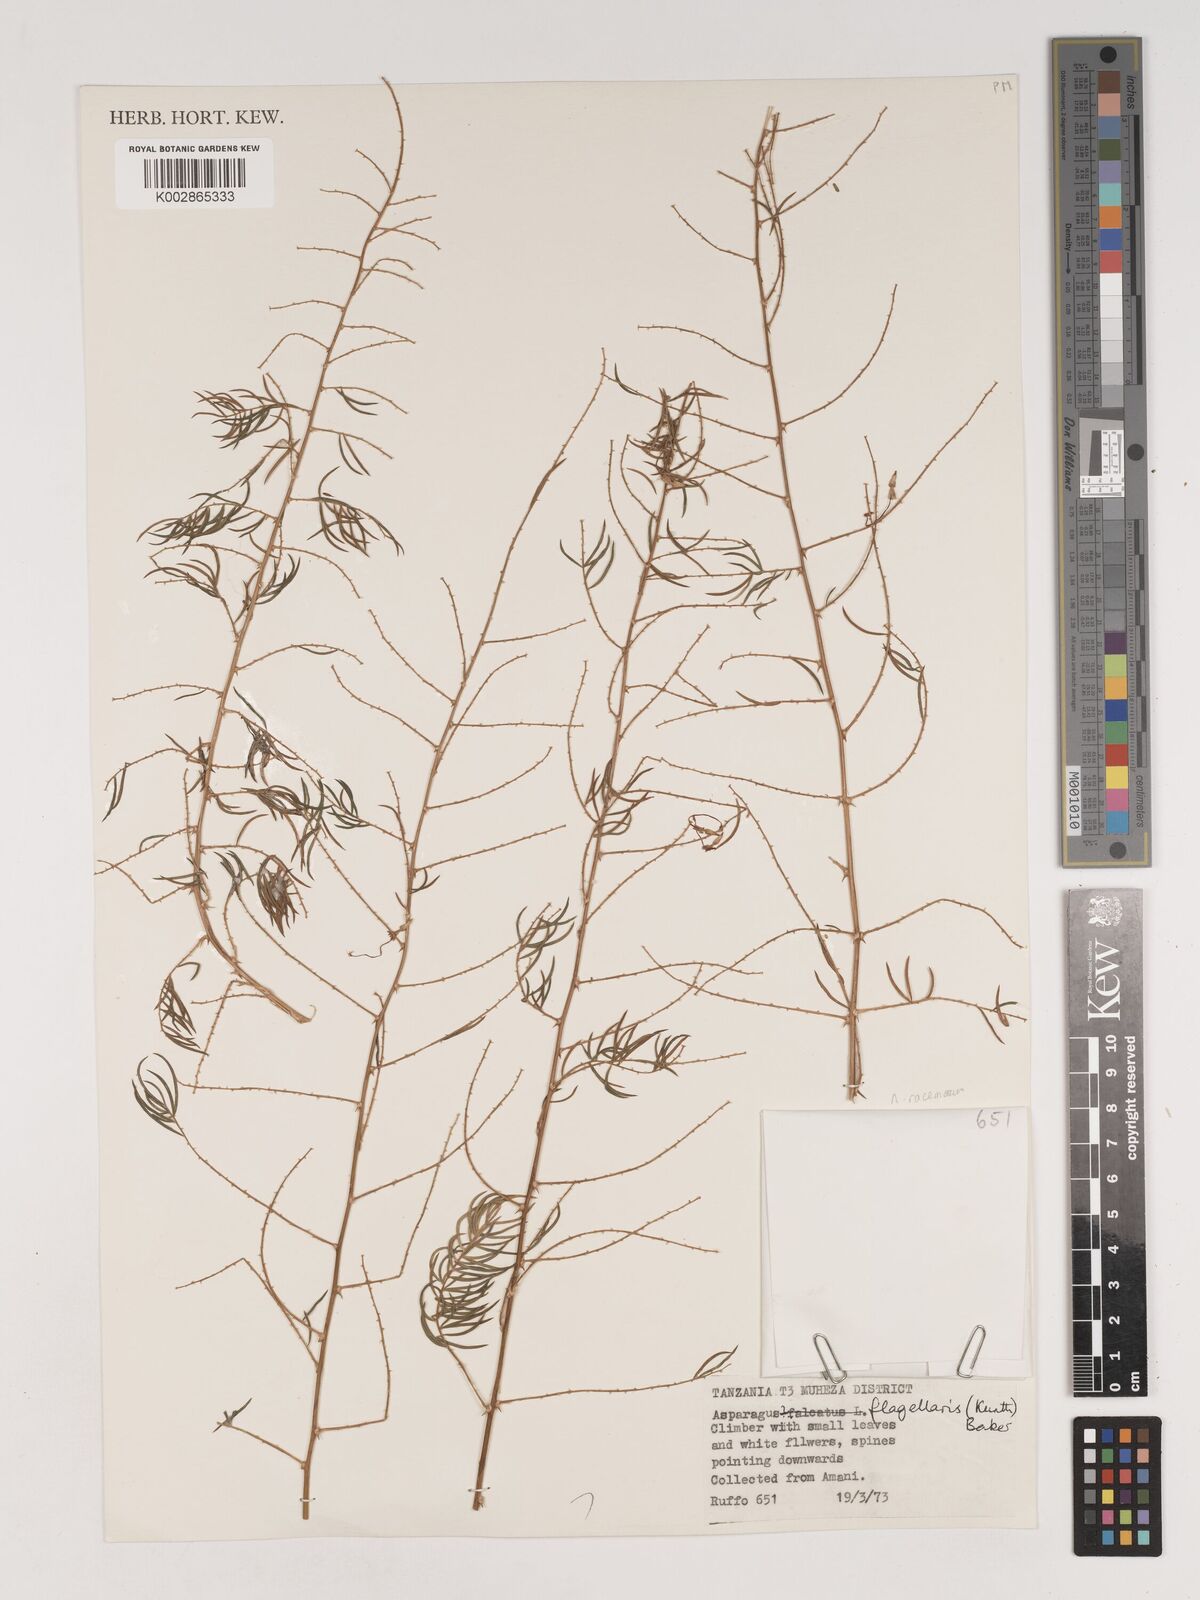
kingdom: Plantae
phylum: Tracheophyta
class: Liliopsida
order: Asparagales
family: Asparagaceae
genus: Asparagus
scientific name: Asparagus
